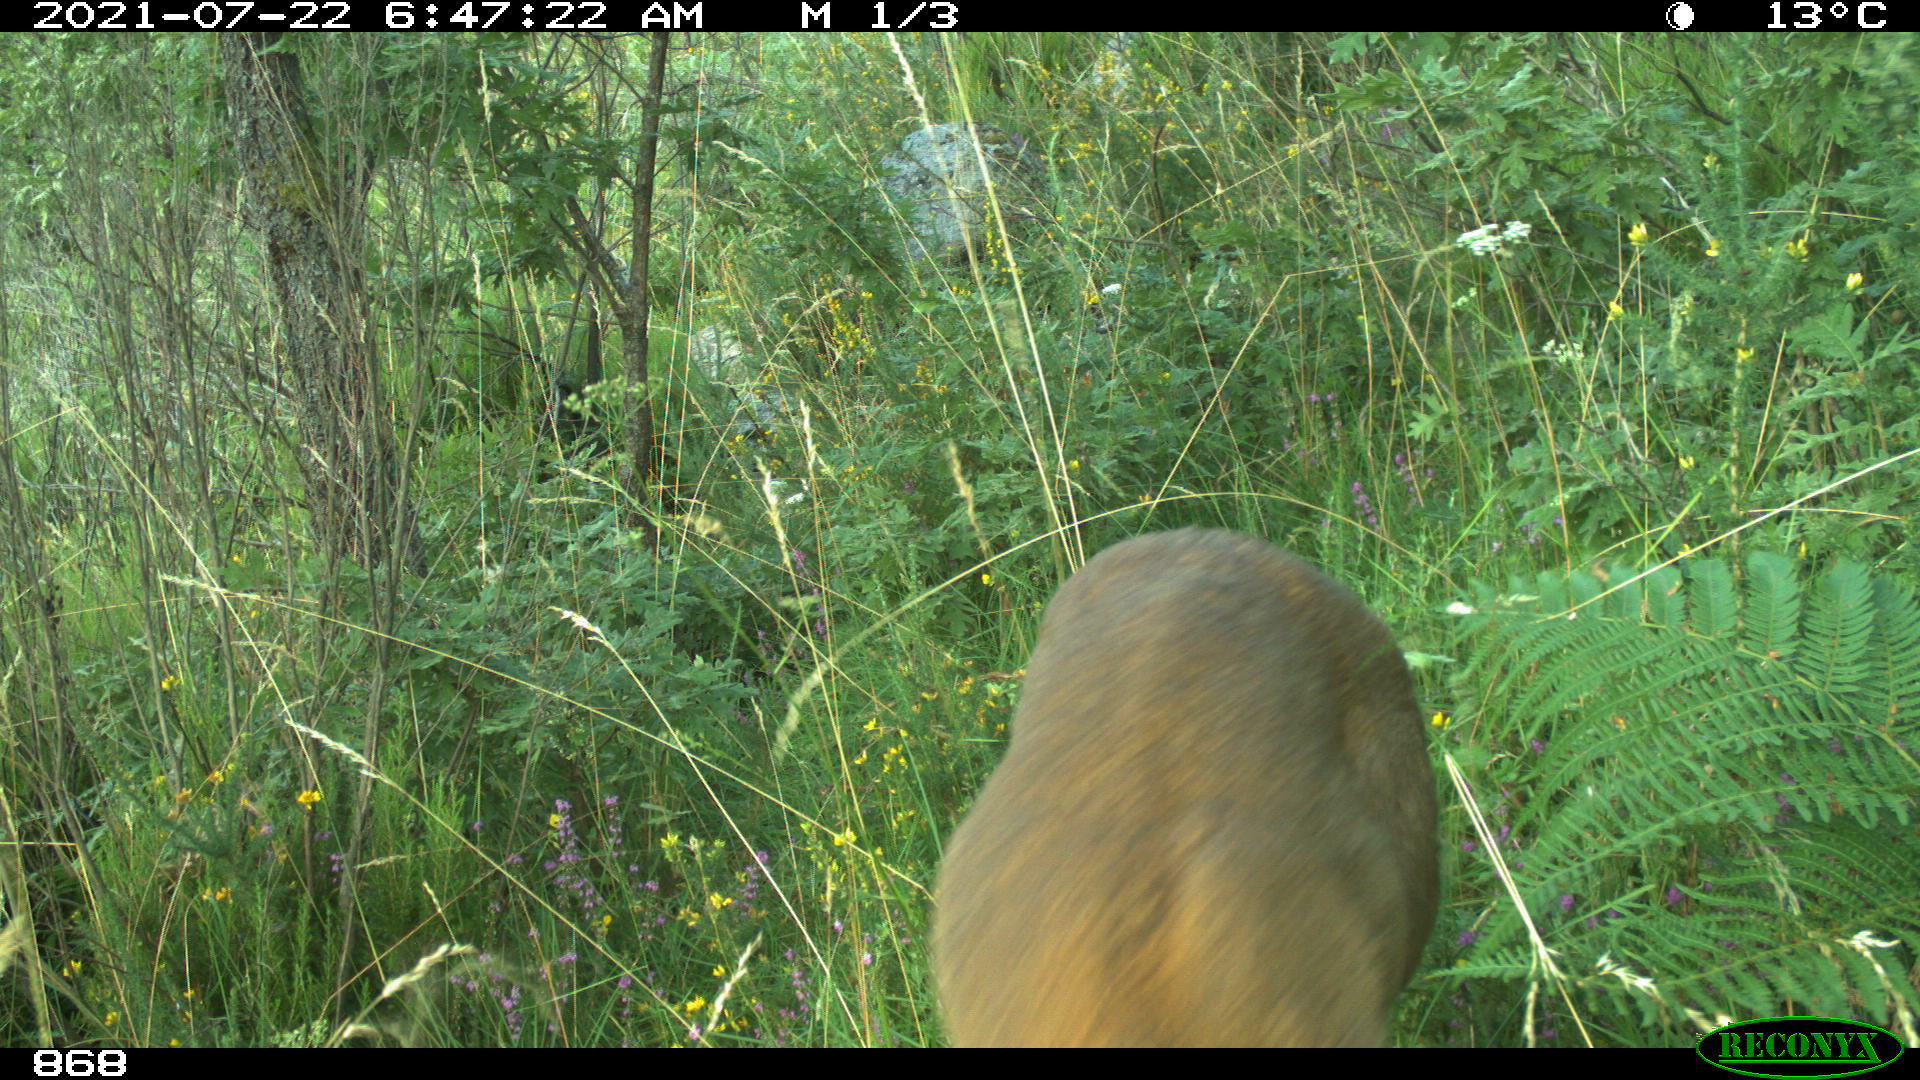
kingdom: Animalia
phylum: Chordata
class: Mammalia
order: Artiodactyla
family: Cervidae
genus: Capreolus
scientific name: Capreolus capreolus
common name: Western roe deer
